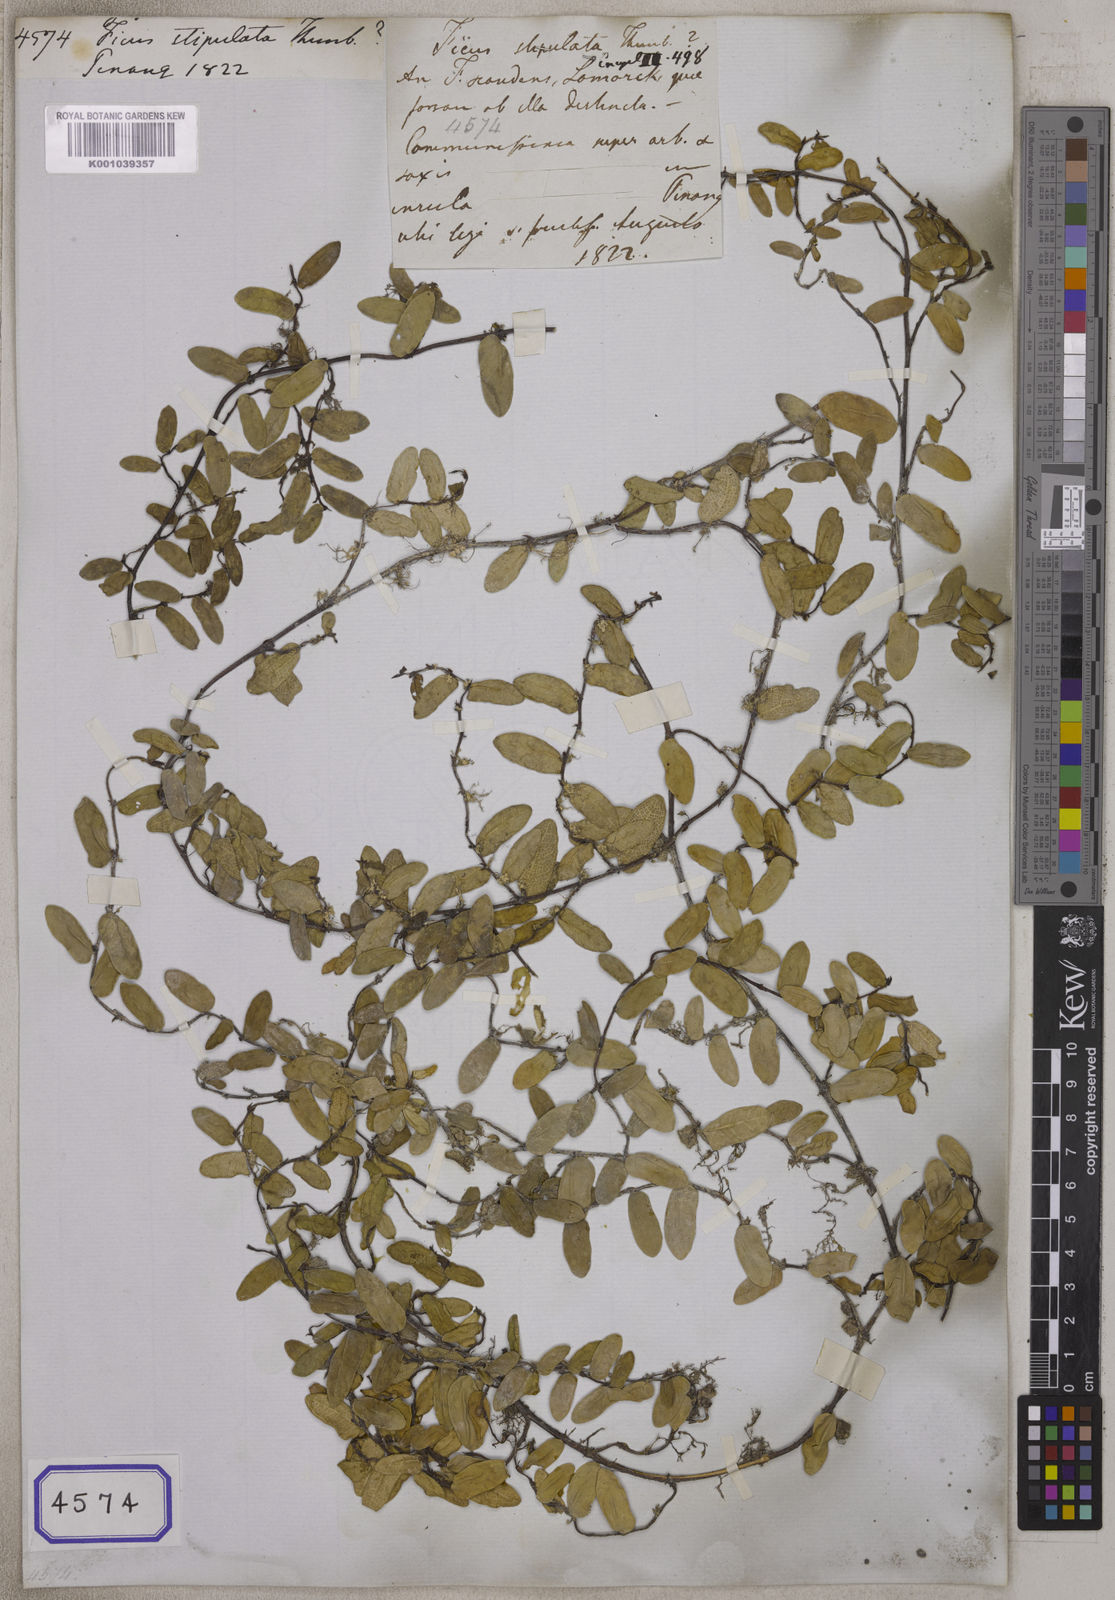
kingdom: Plantae
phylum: Tracheophyta
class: Magnoliopsida
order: Rosales
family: Moraceae
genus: Ficus
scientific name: Ficus
